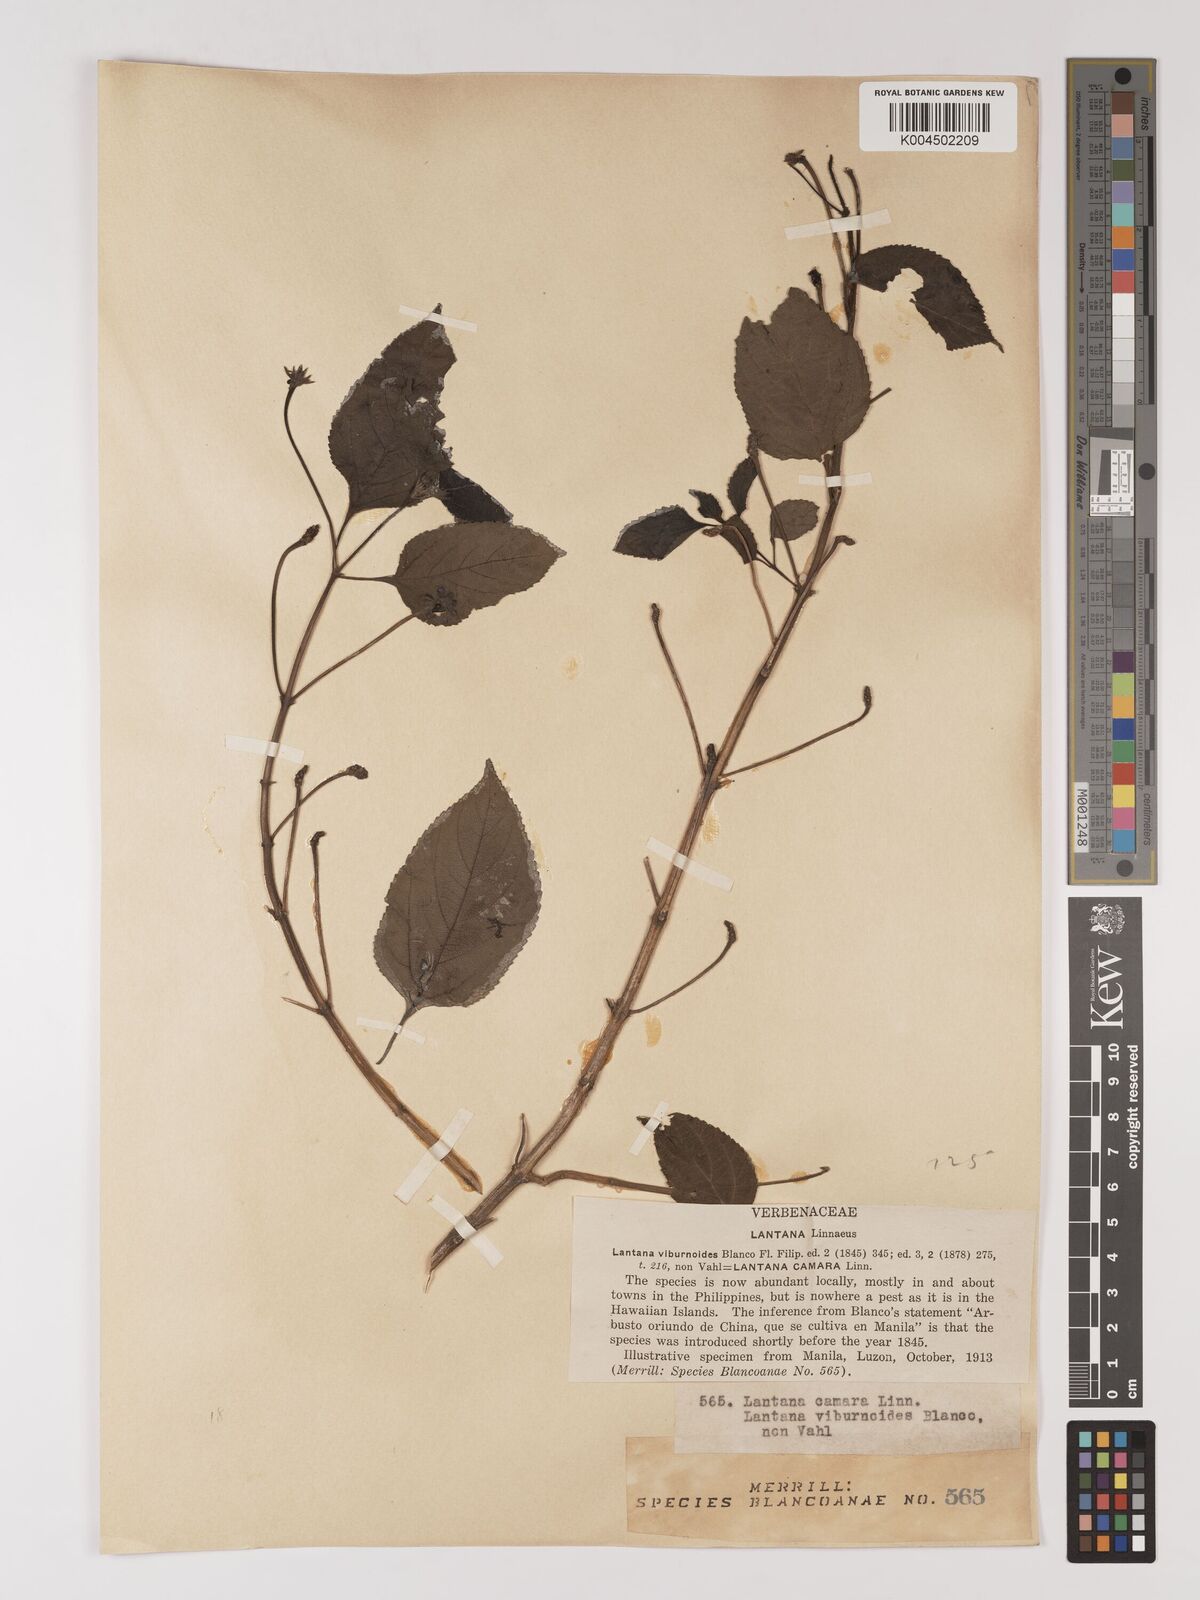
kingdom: Plantae
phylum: Tracheophyta
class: Magnoliopsida
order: Lamiales
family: Verbenaceae
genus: Lantana
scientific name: Lantana
